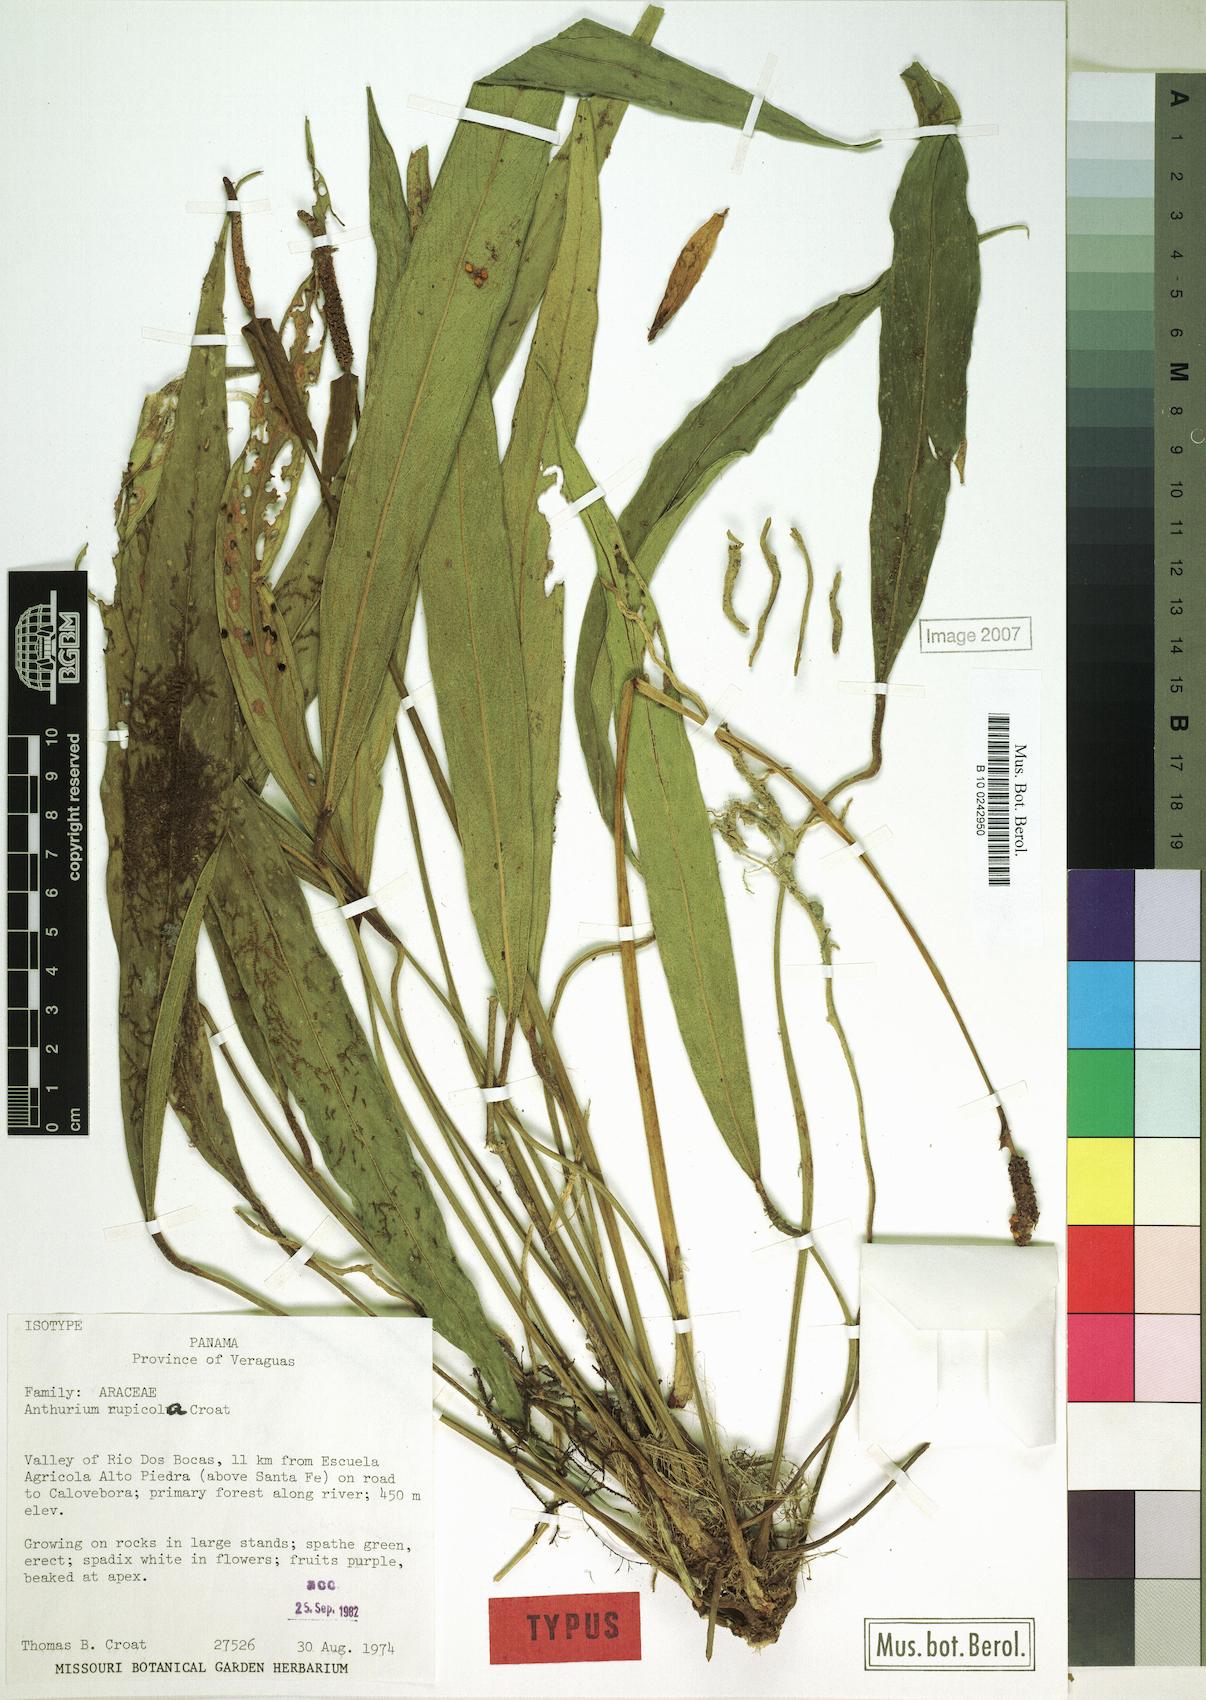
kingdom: Plantae
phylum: Tracheophyta
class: Liliopsida
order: Alismatales
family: Araceae
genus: Anthurium
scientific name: Anthurium rupicola
